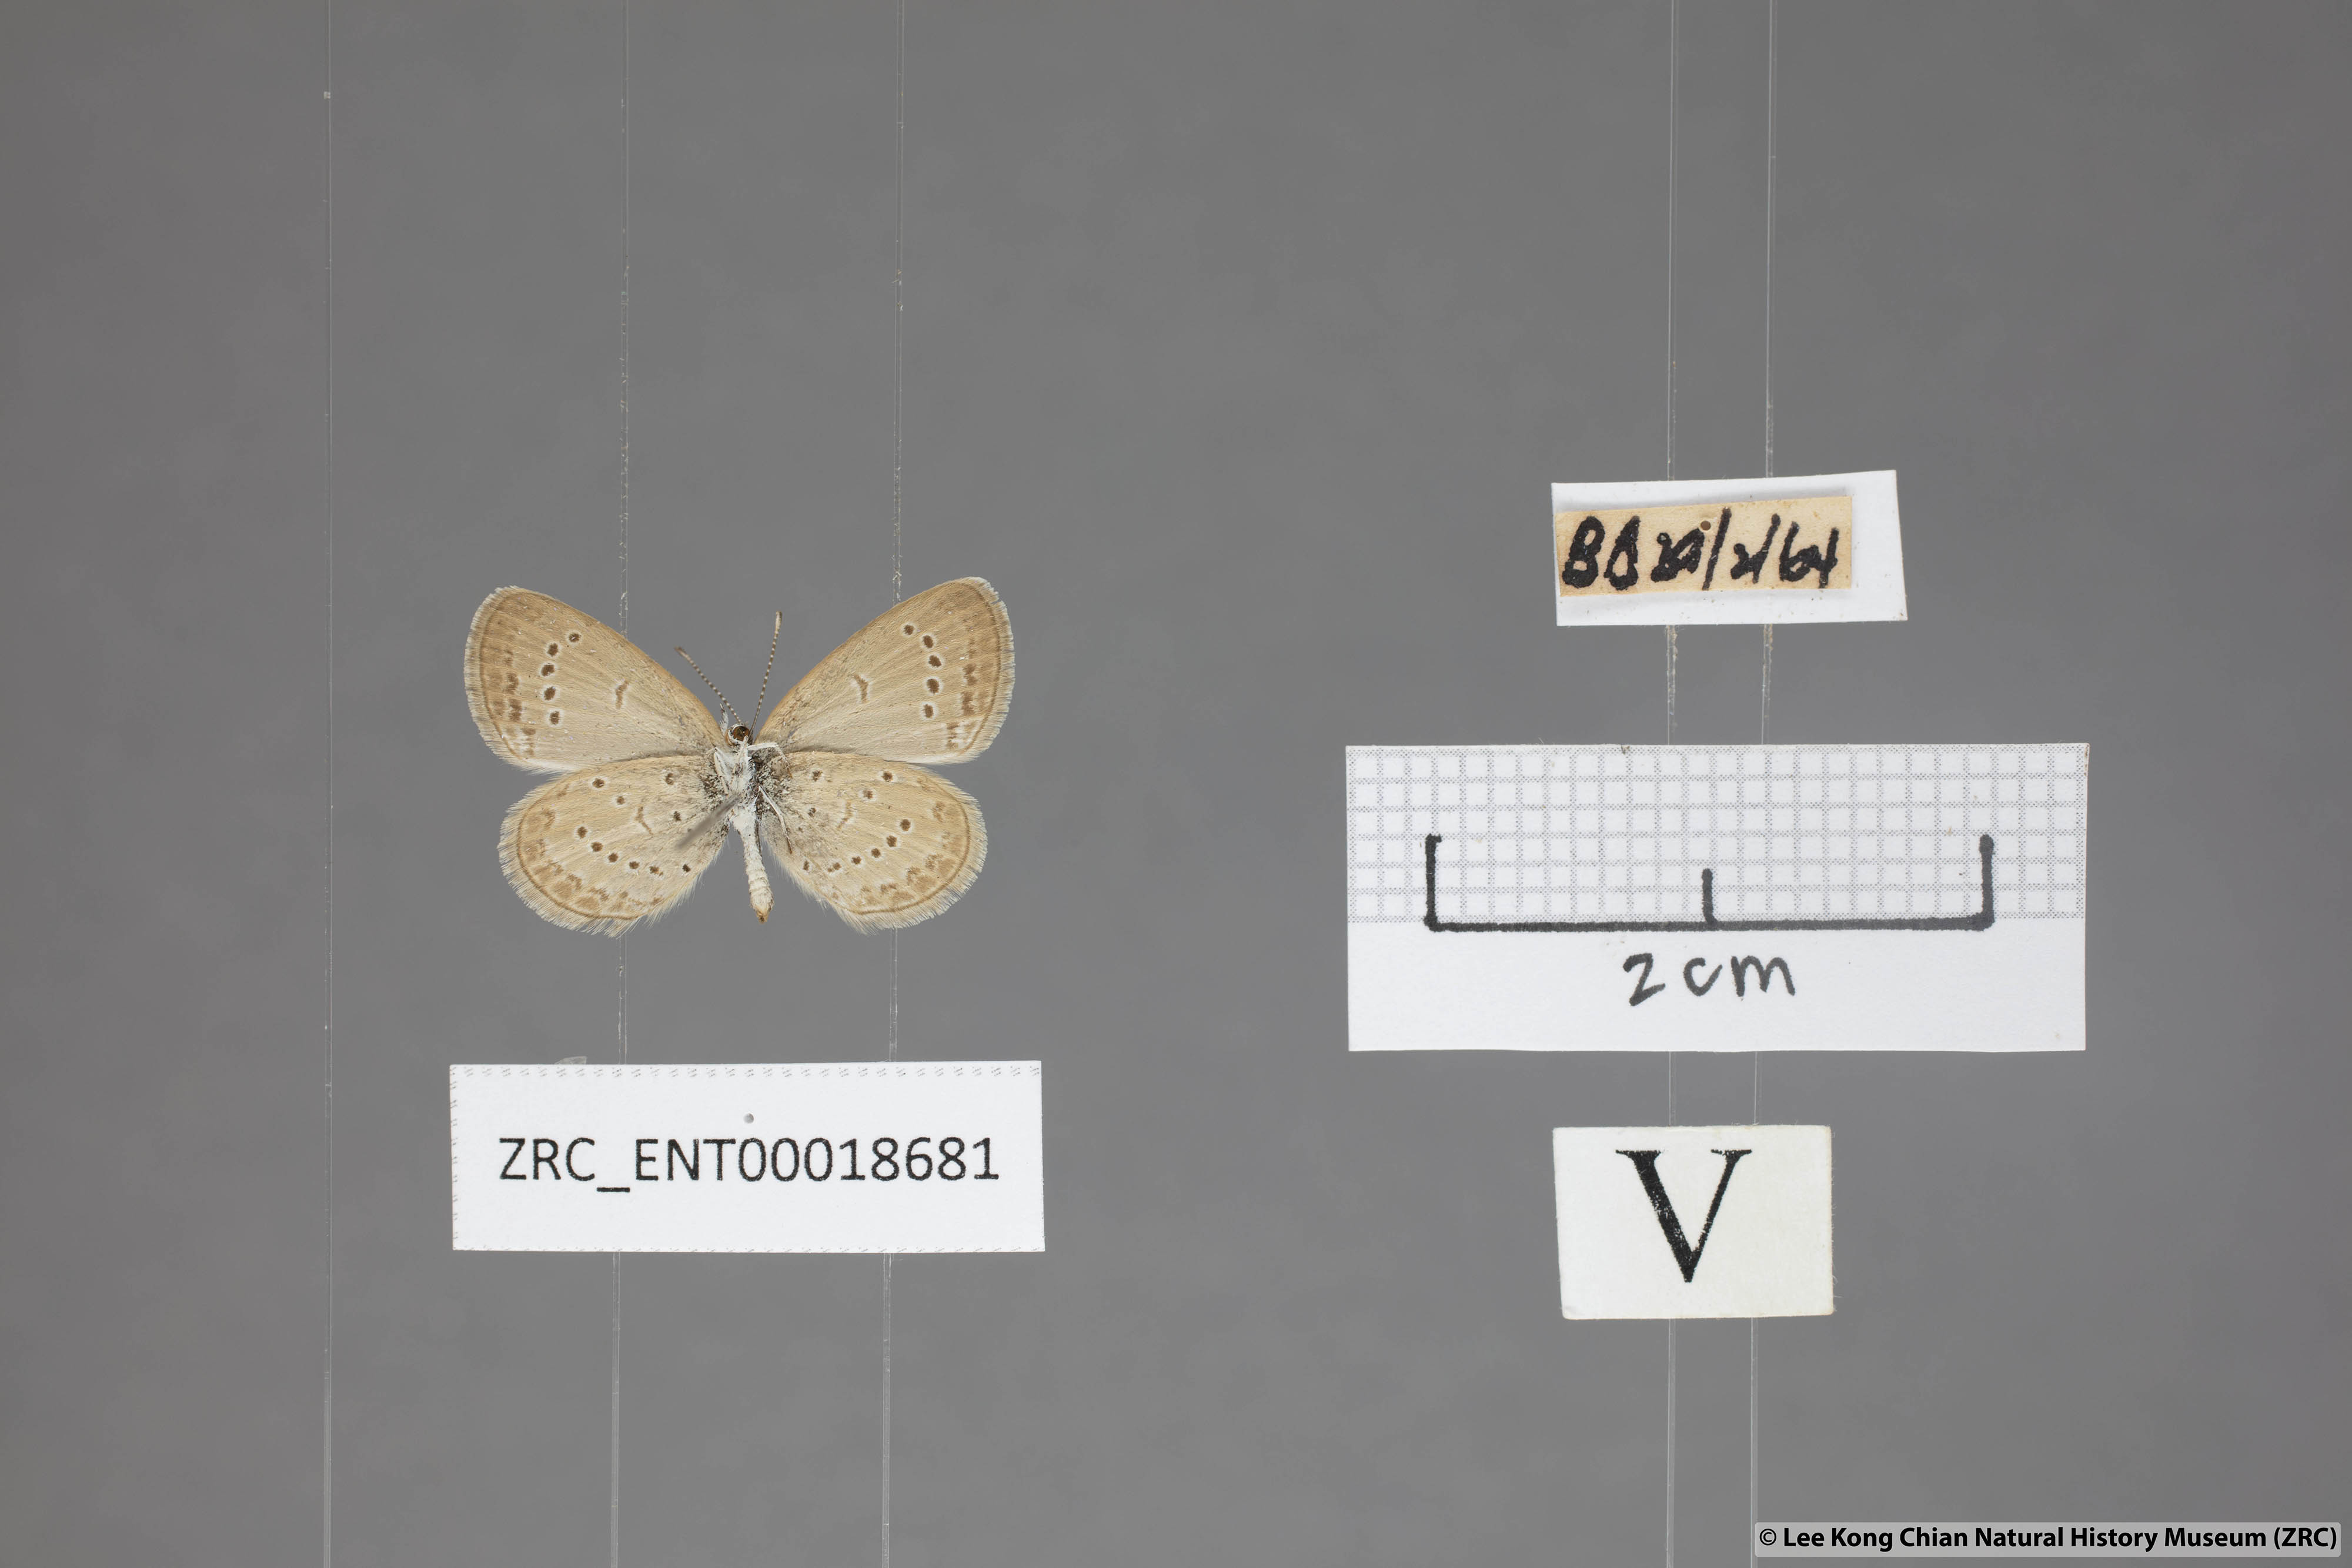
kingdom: Animalia
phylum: Arthropoda
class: Insecta
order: Lepidoptera
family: Lycaenidae
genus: Zizina
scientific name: Zizina otis
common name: Lesser grass blue
